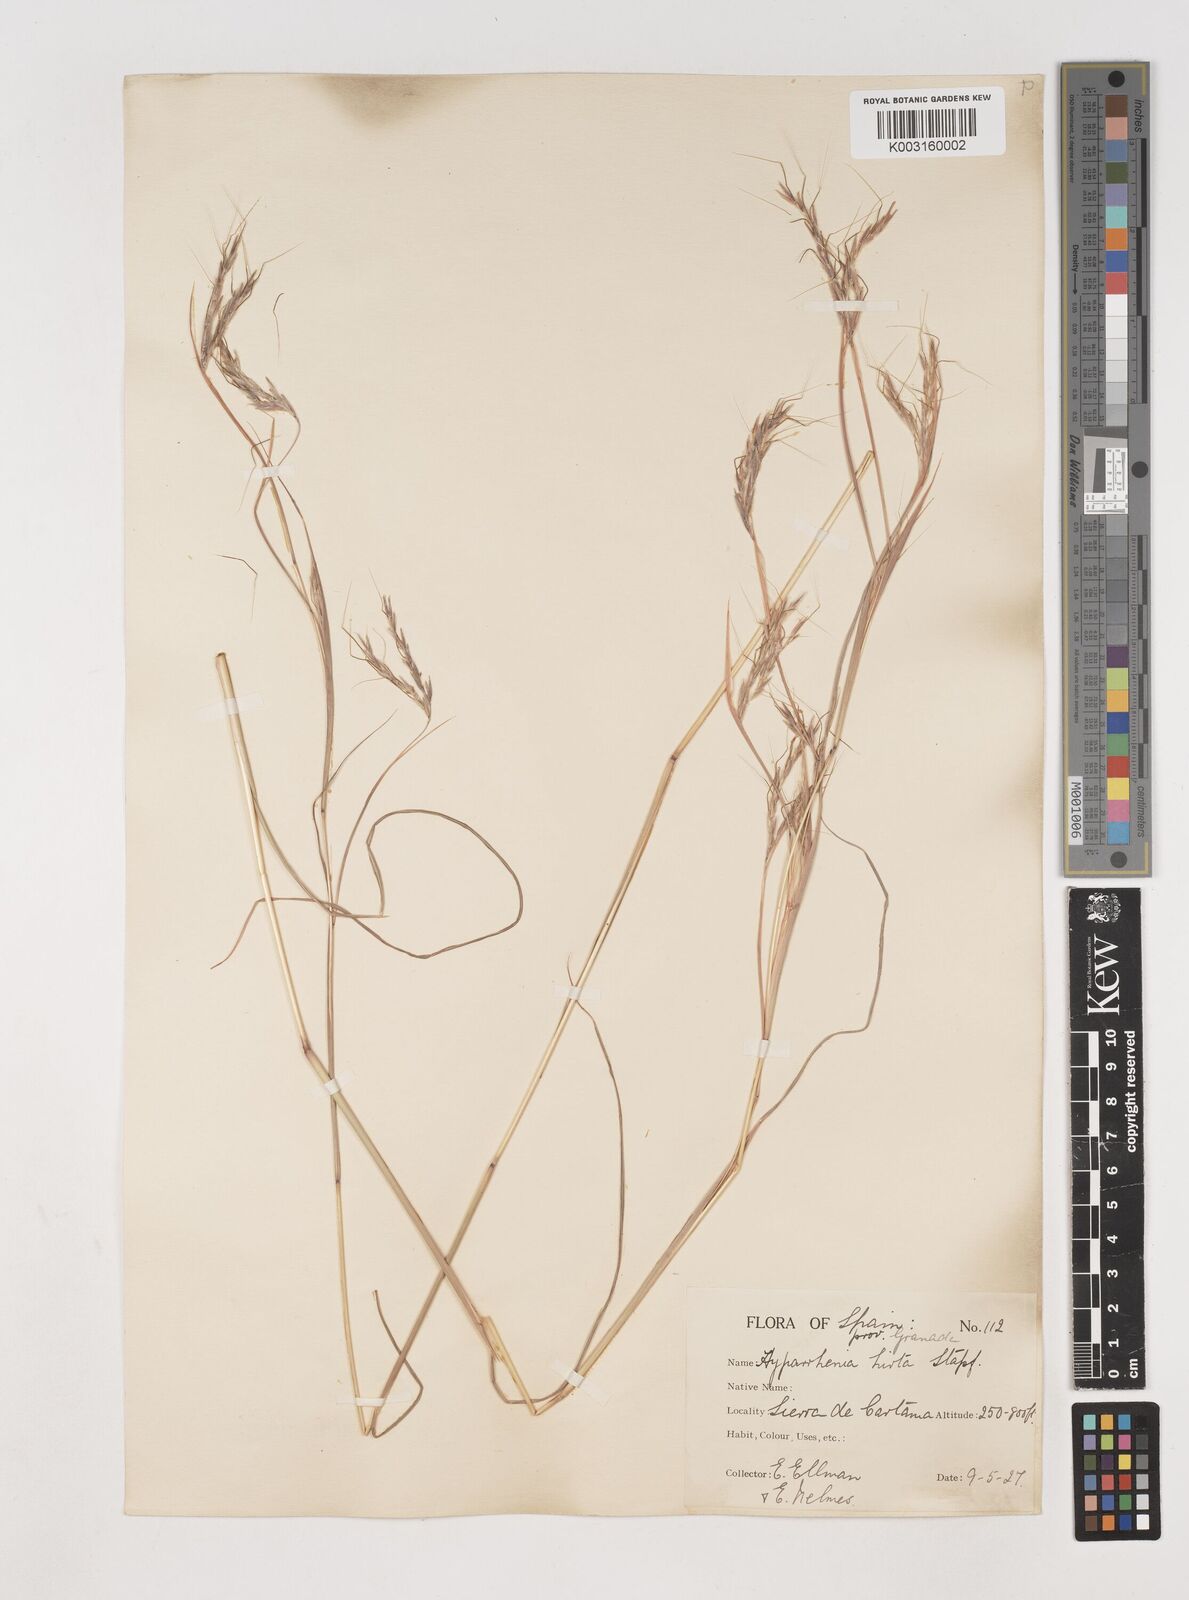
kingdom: Plantae
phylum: Tracheophyta
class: Liliopsida
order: Poales
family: Poaceae
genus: Hyparrhenia
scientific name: Hyparrhenia hirta
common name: Thatching grass
